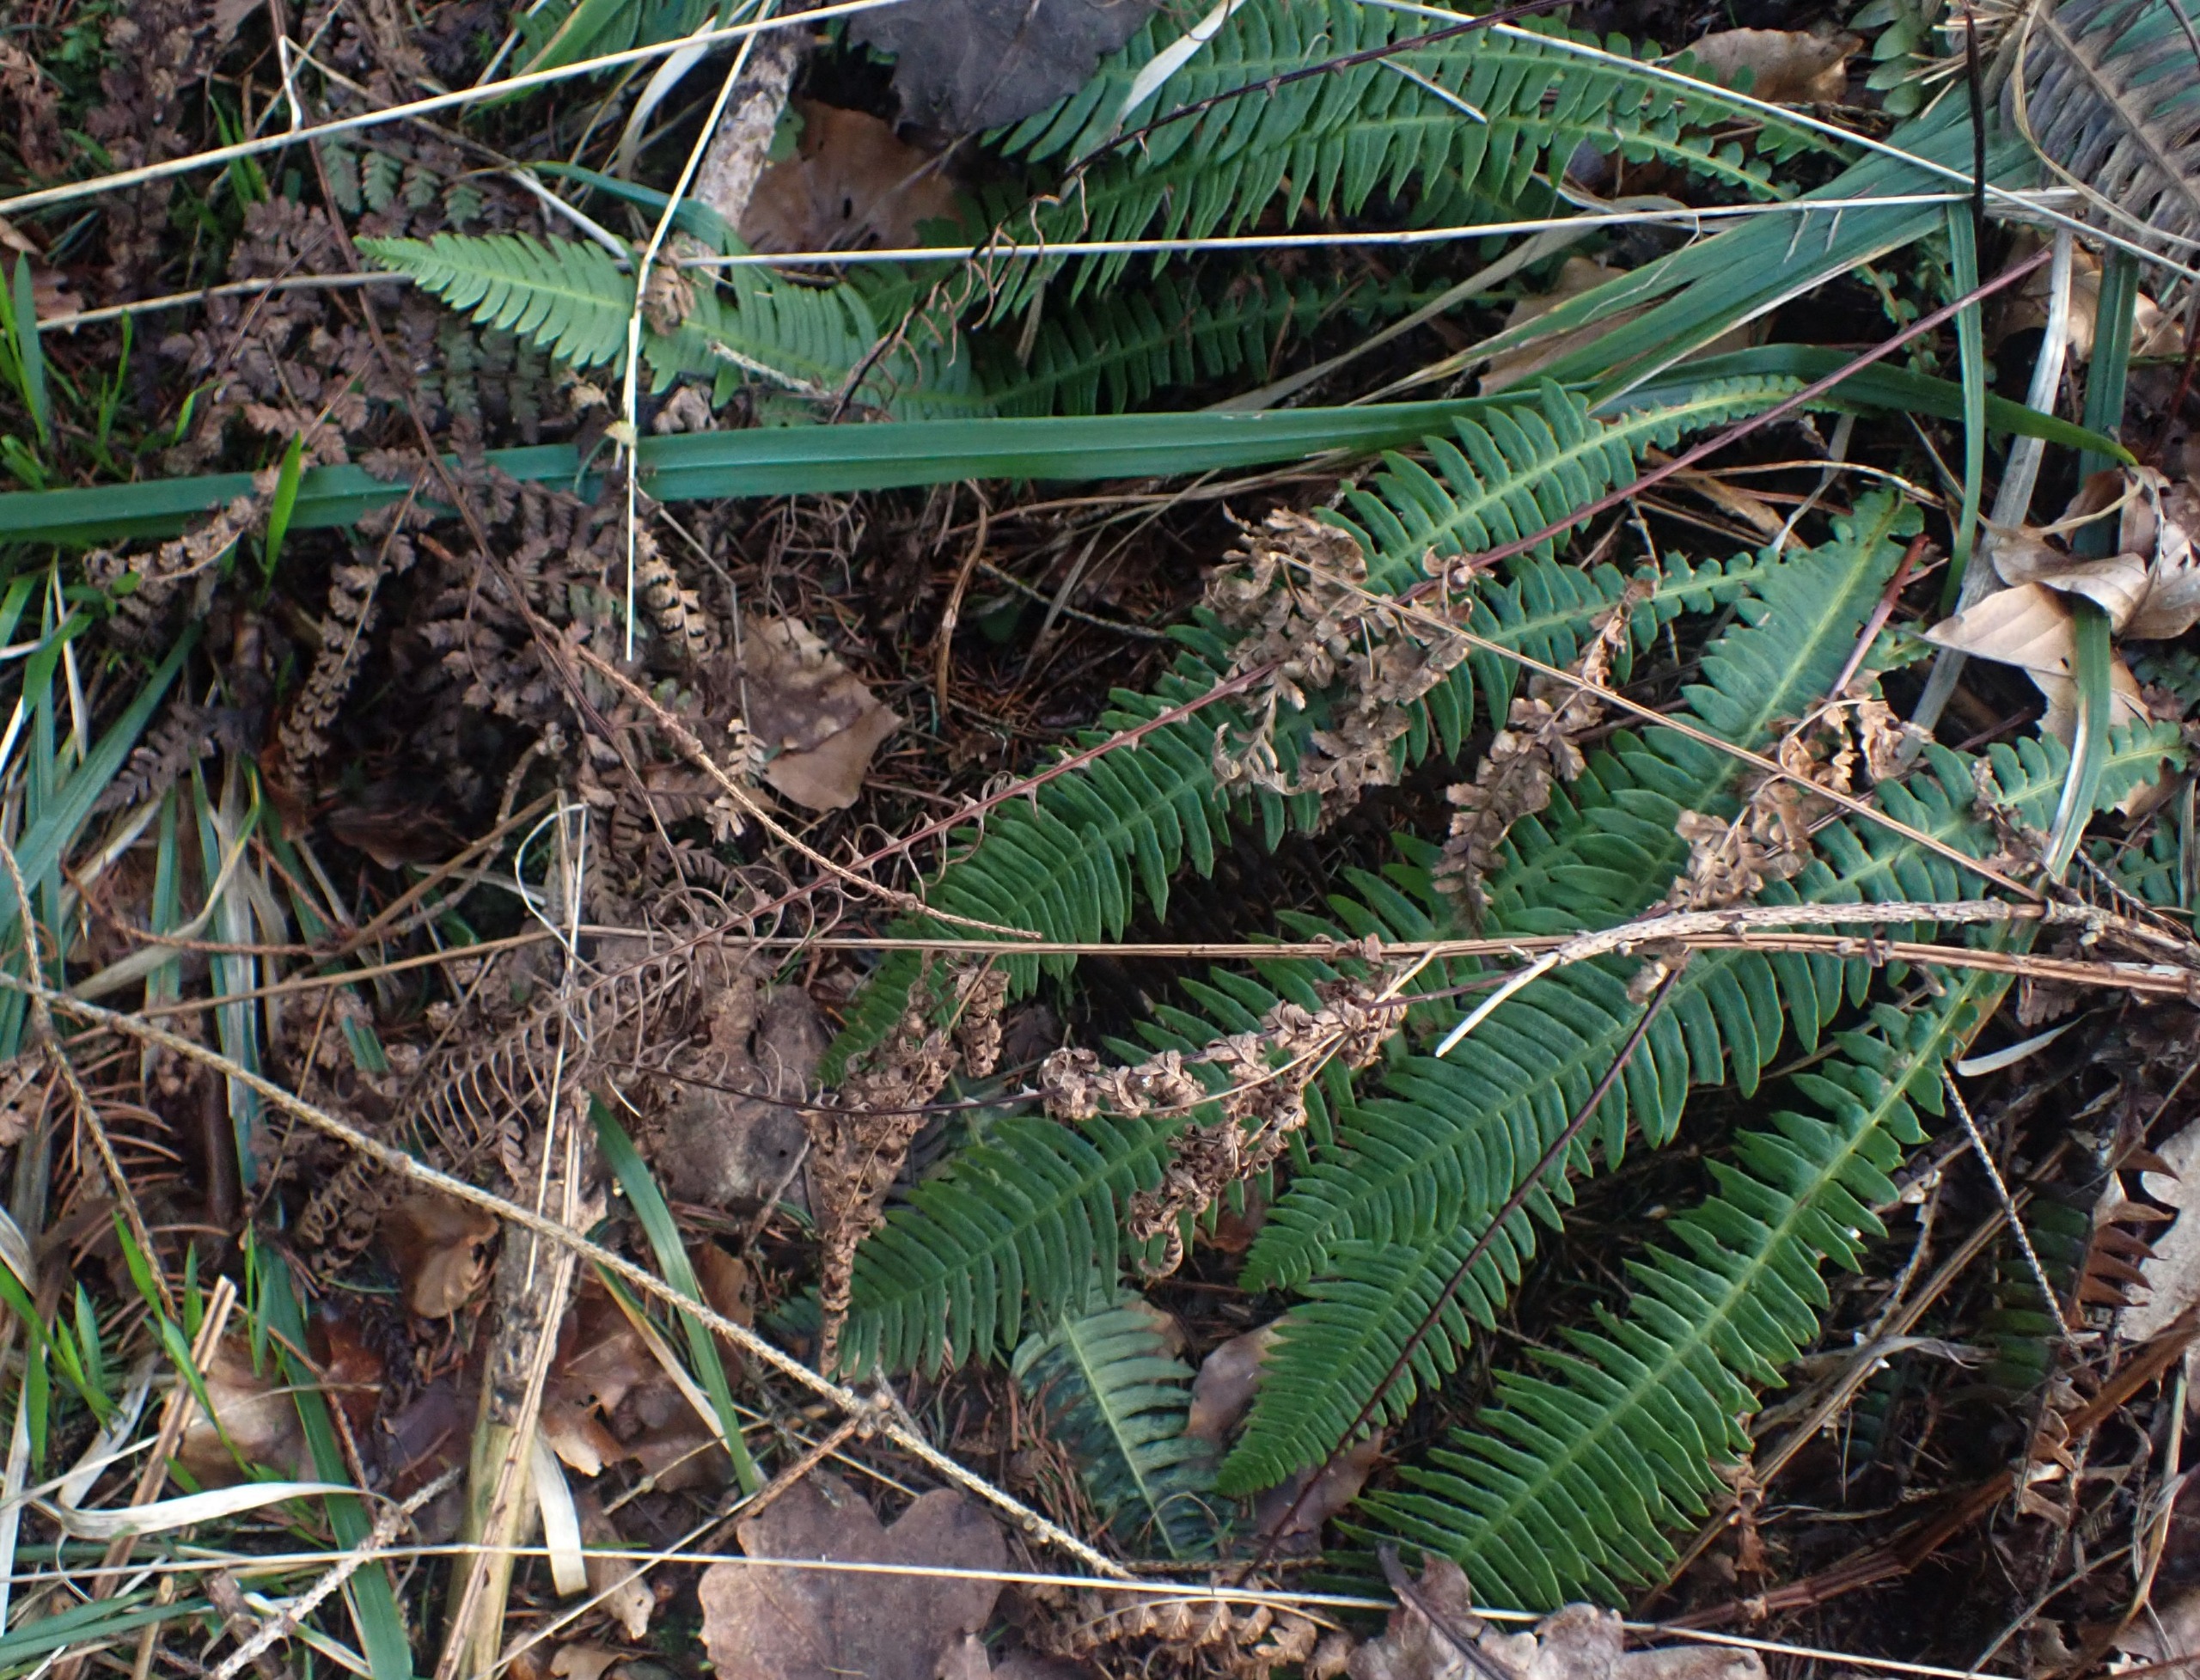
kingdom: Plantae
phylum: Tracheophyta
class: Polypodiopsida
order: Polypodiales
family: Blechnaceae
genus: Struthiopteris
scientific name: Struthiopteris spicant
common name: Kambregne
